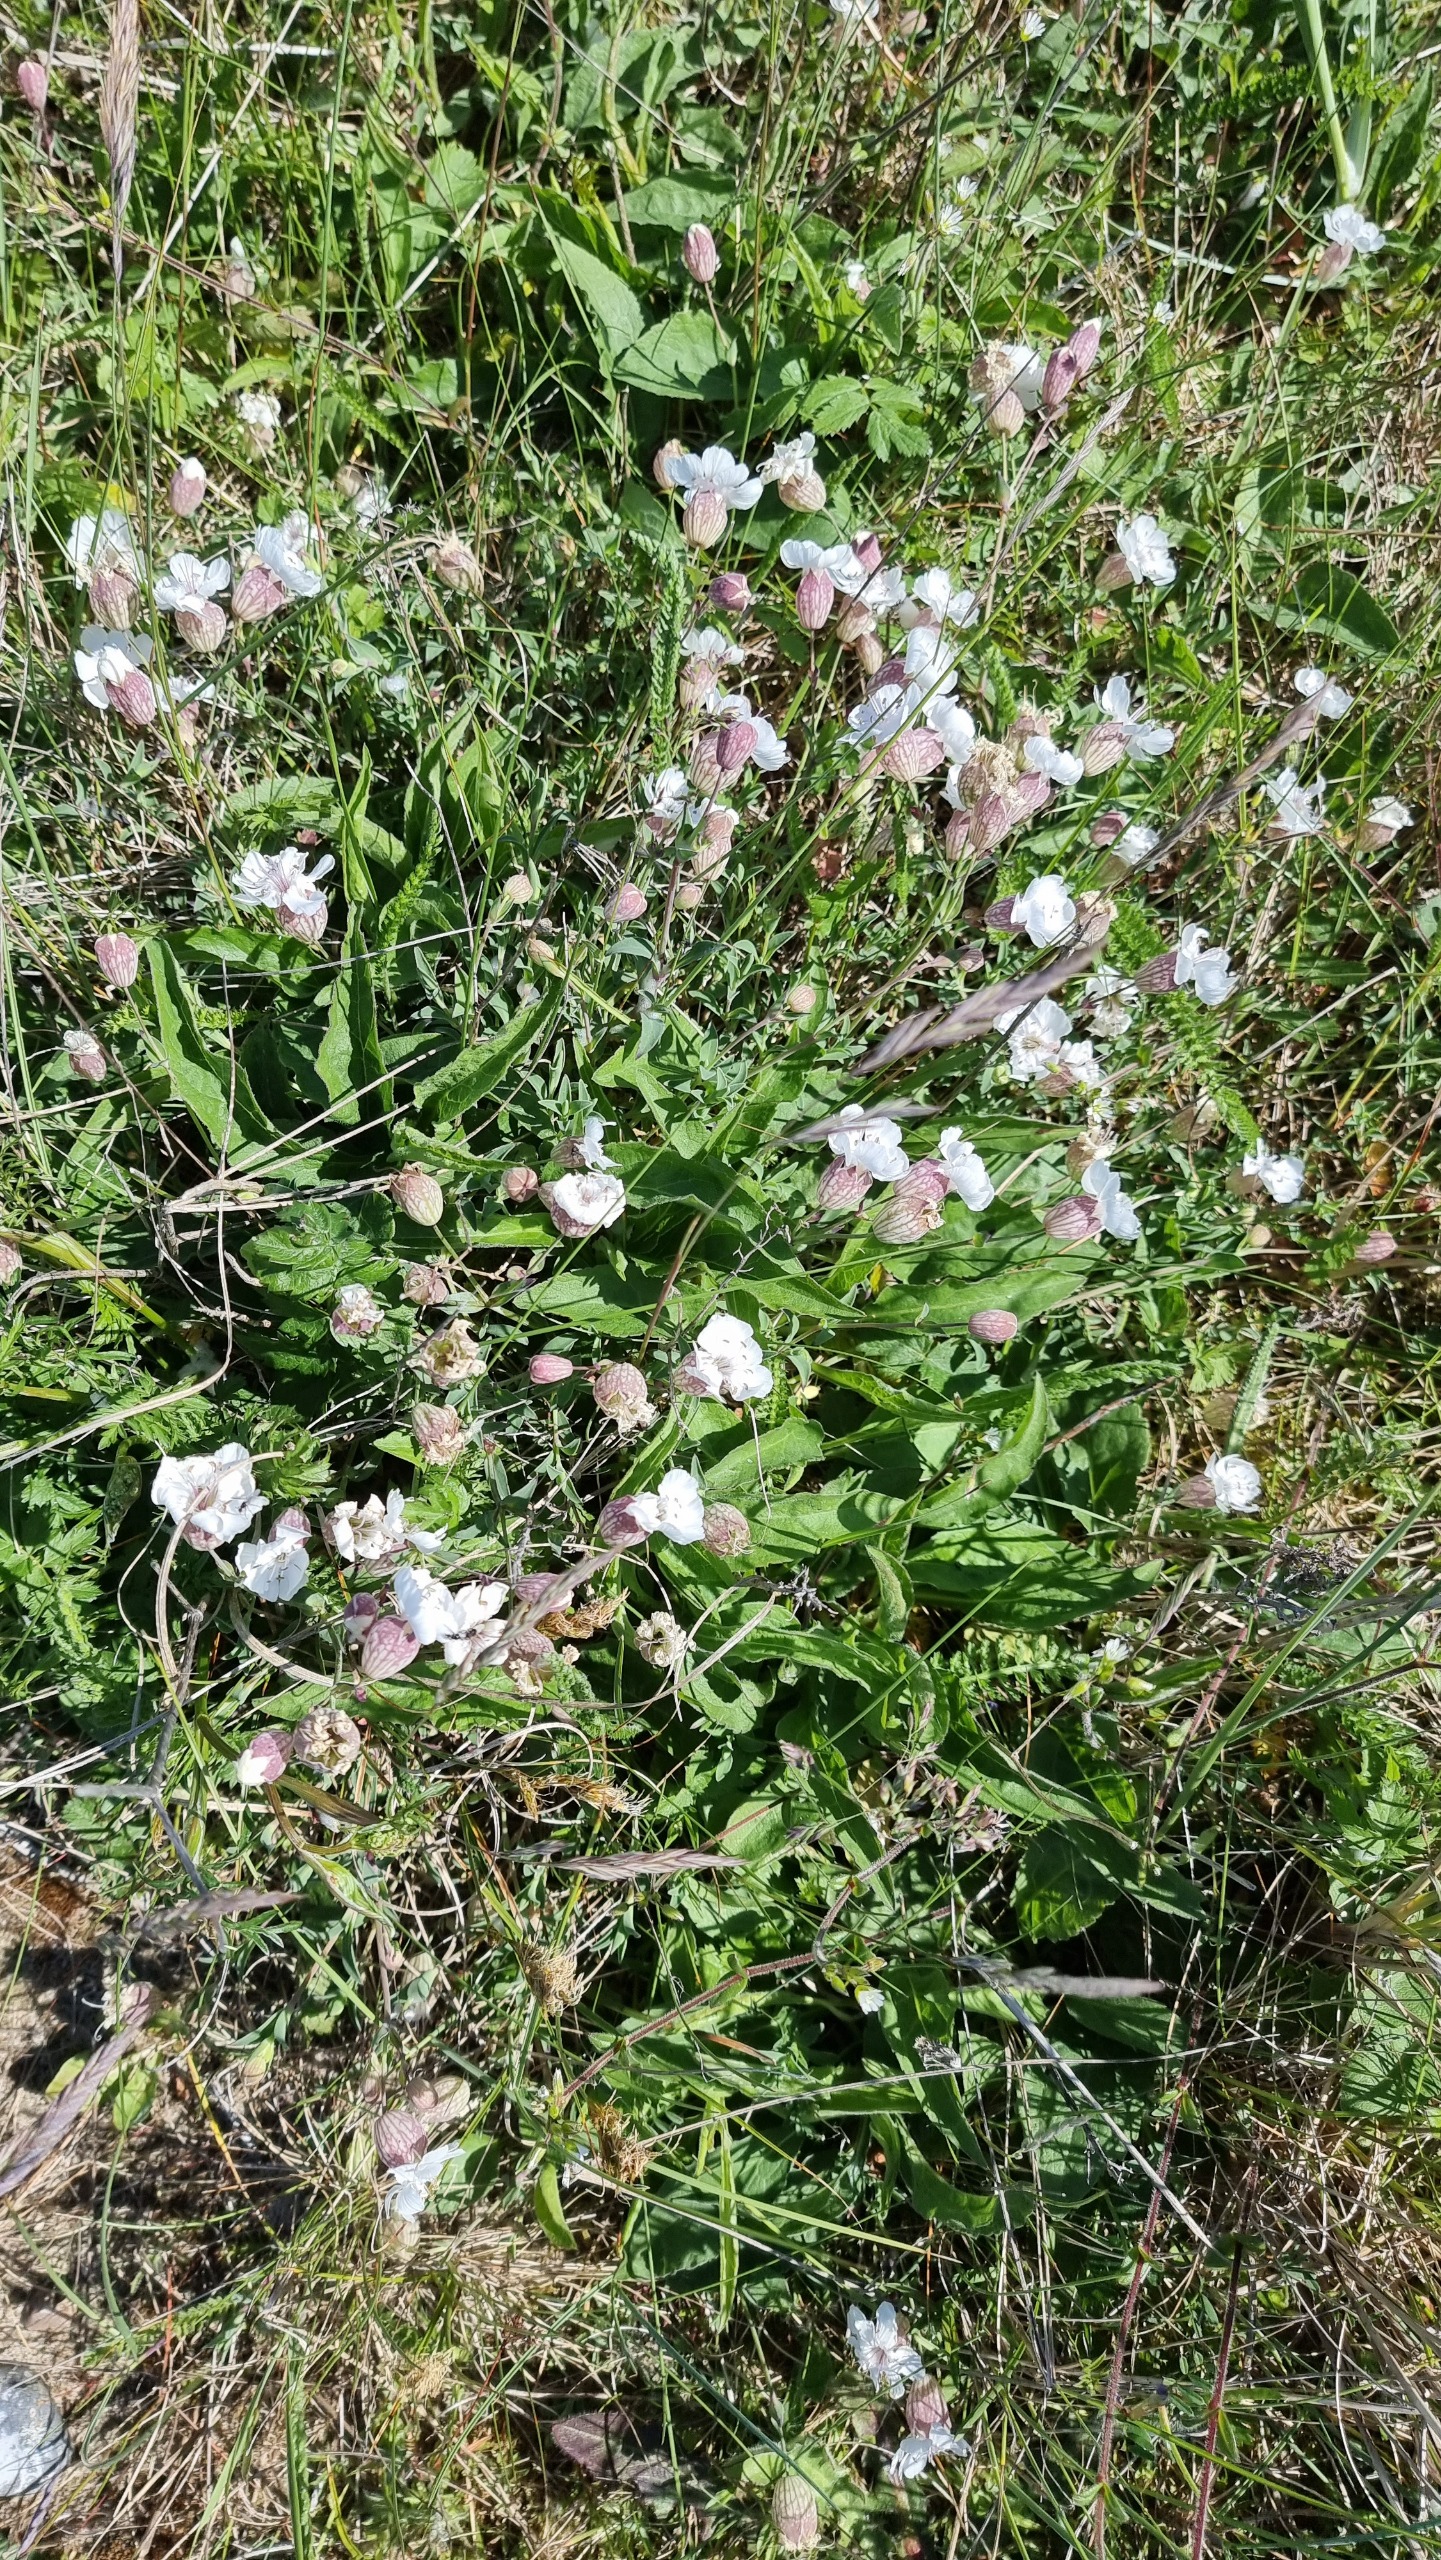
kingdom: Plantae
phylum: Tracheophyta
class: Magnoliopsida
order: Caryophyllales
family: Caryophyllaceae
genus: Silene
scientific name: Silene uniflora
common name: Strand-limurt
